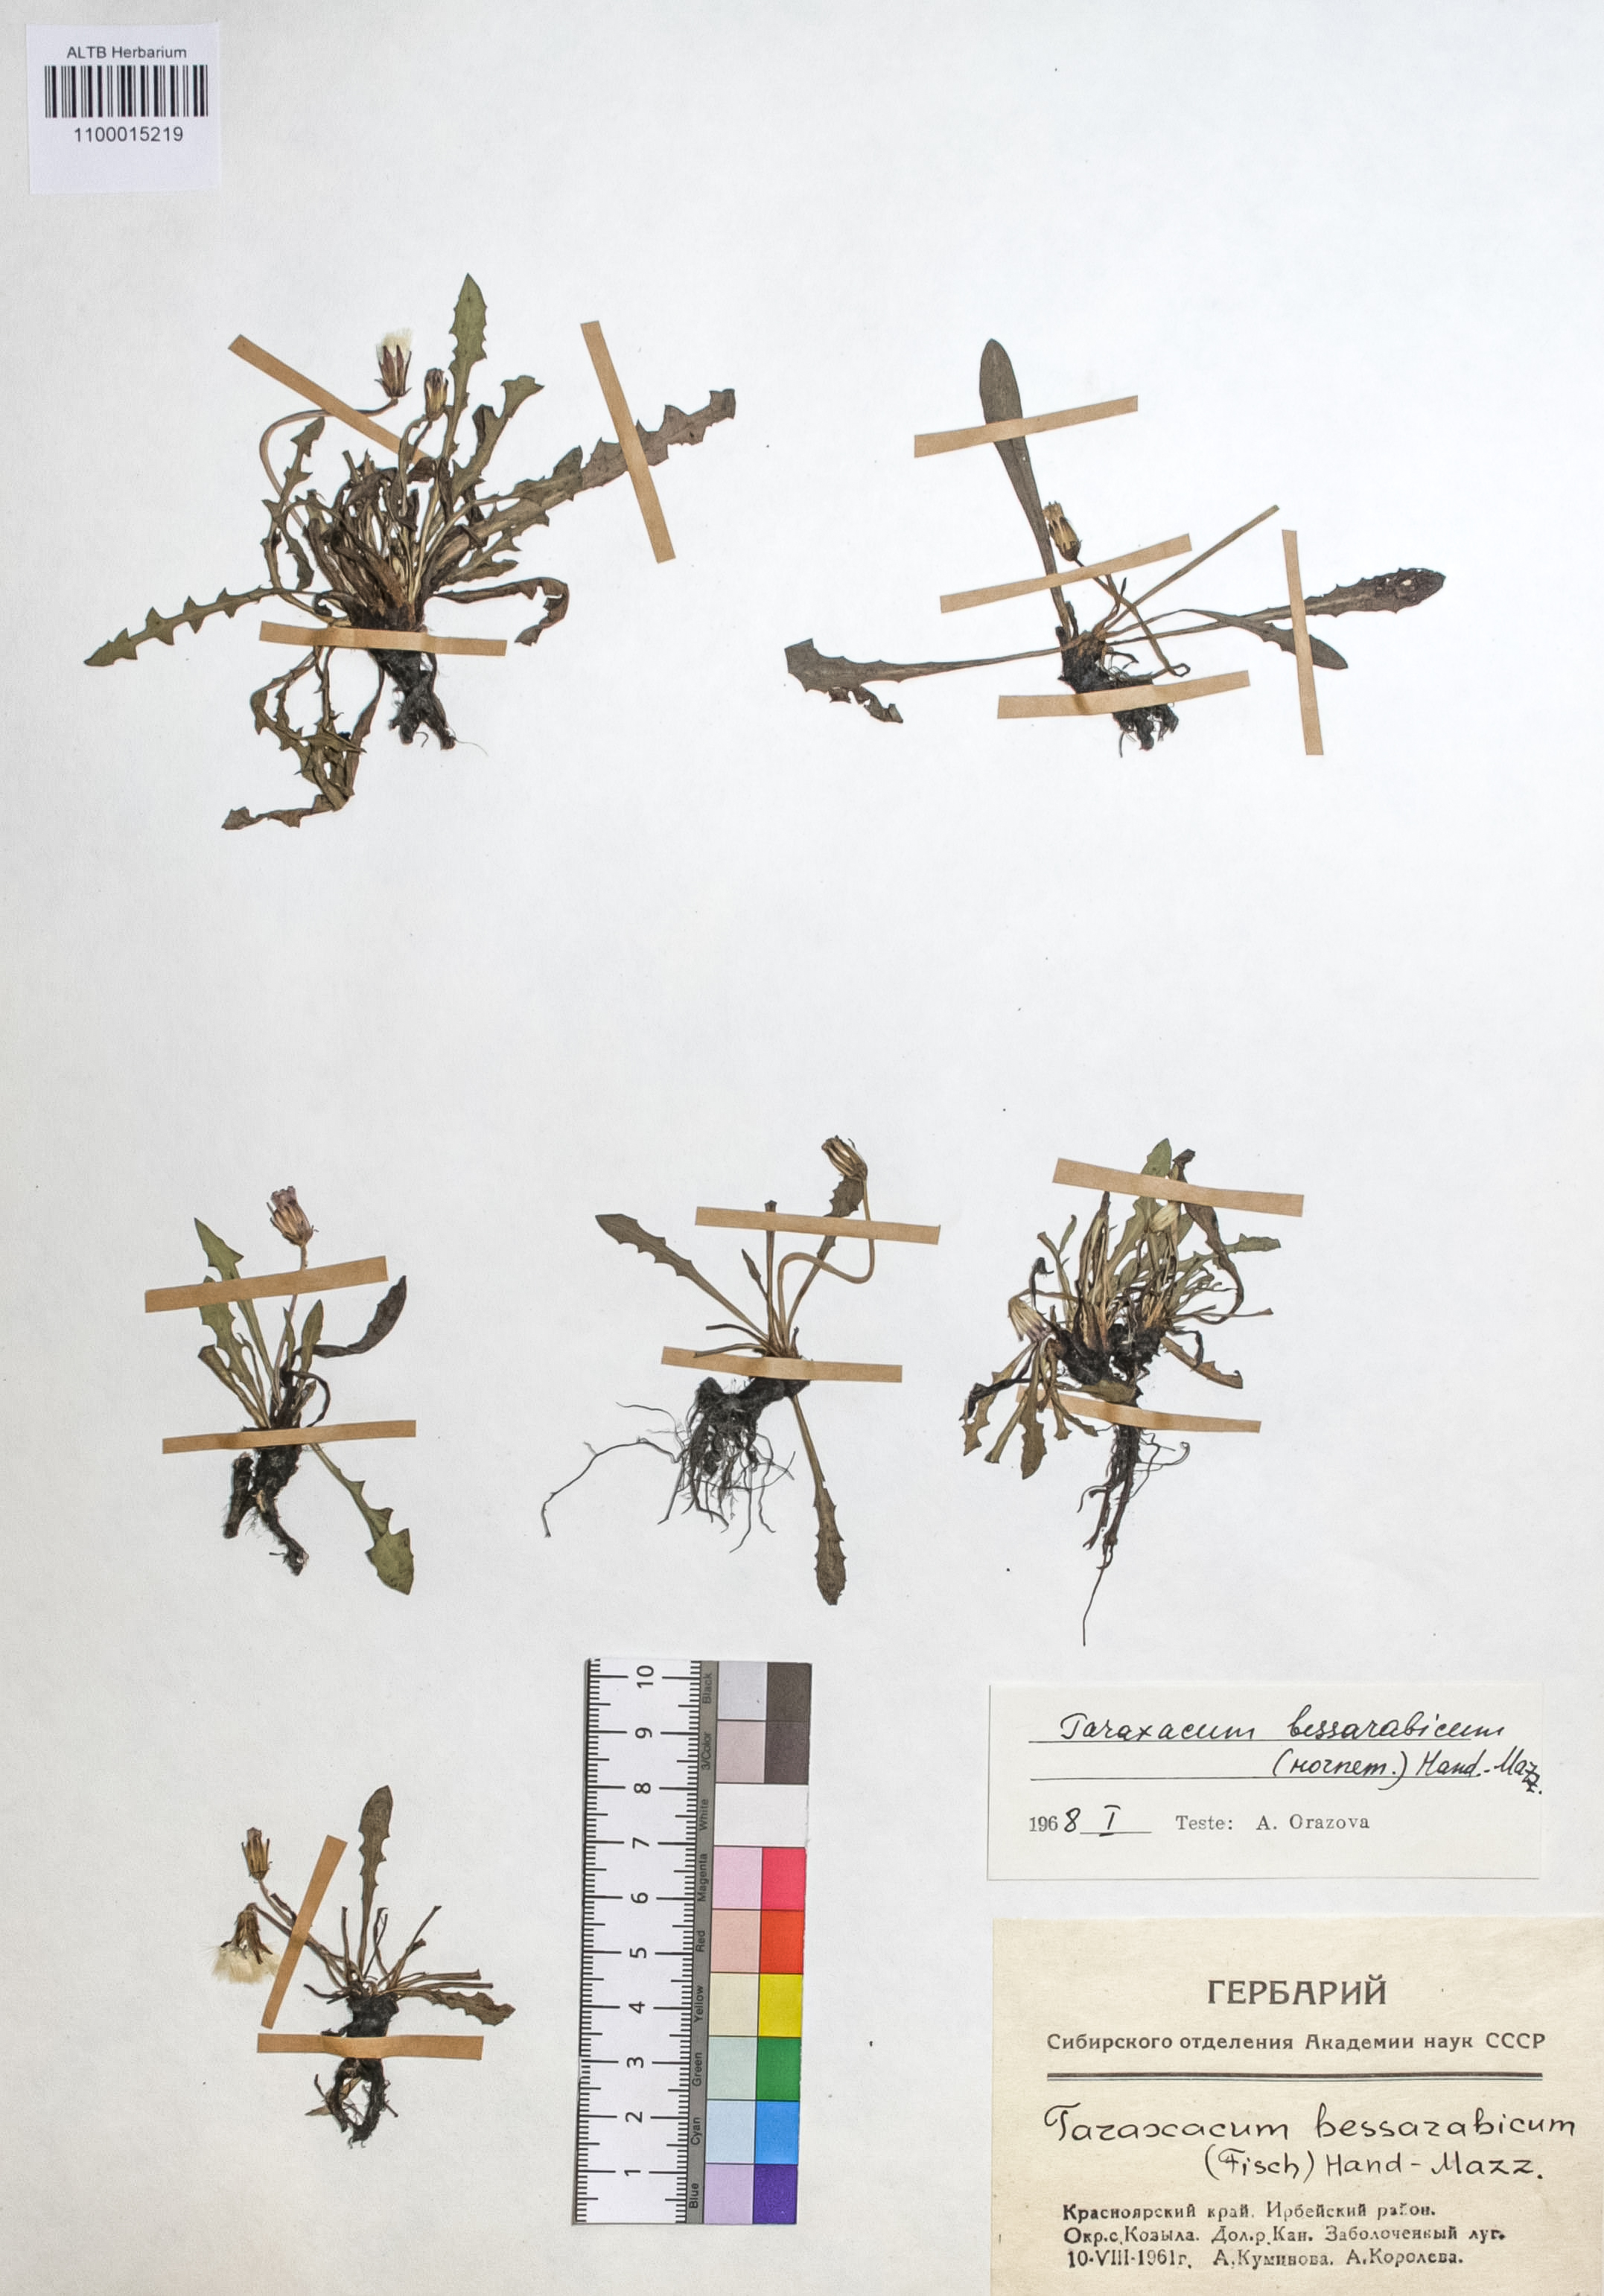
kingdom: Plantae
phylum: Tracheophyta
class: Magnoliopsida
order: Asterales
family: Asteraceae
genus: Taraxacum
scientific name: Taraxacum bessarabicum
